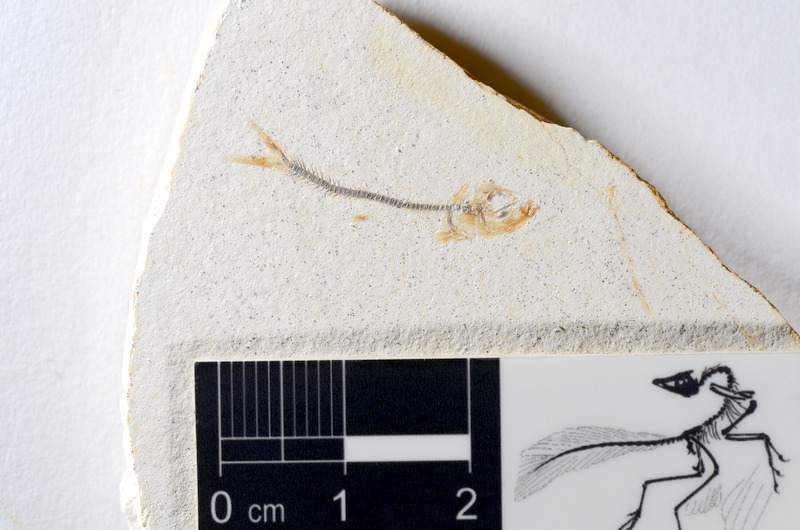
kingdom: Animalia
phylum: Chordata
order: Salmoniformes
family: Orthogonikleithridae
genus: Orthogonikleithrus
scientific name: Orthogonikleithrus hoelli
